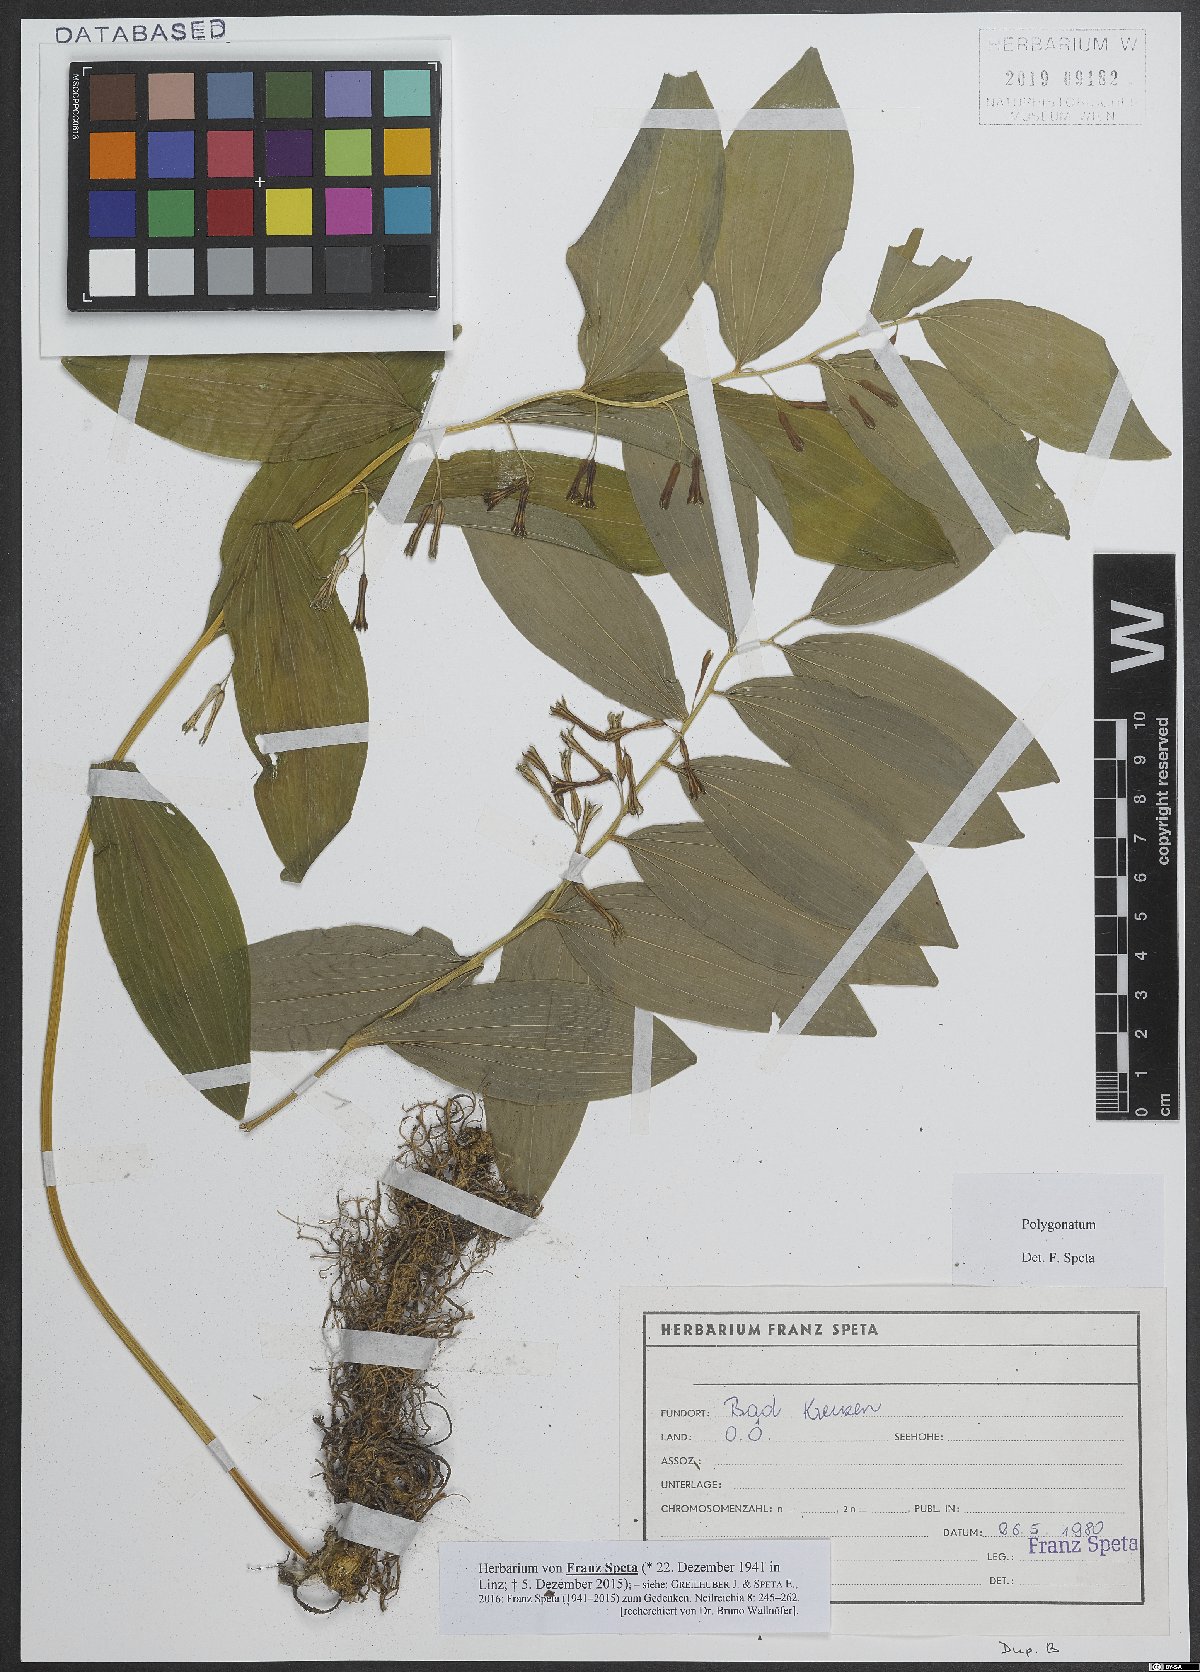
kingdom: Plantae
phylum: Tracheophyta
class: Liliopsida
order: Asparagales
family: Asparagaceae
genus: Polygonatum
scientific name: Polygonatum
